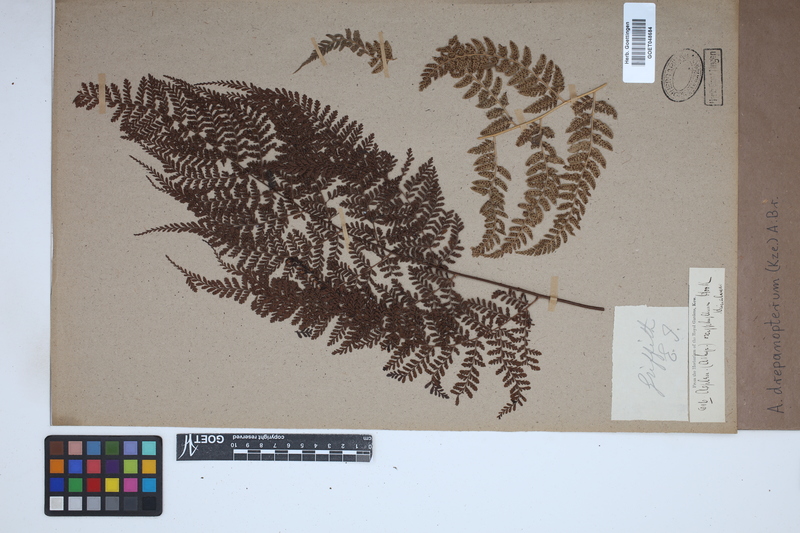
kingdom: Plantae
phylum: Tracheophyta
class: Polypodiopsida
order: Polypodiales
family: Athyriaceae
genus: Athyrium
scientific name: Athyrium drepanopteron
